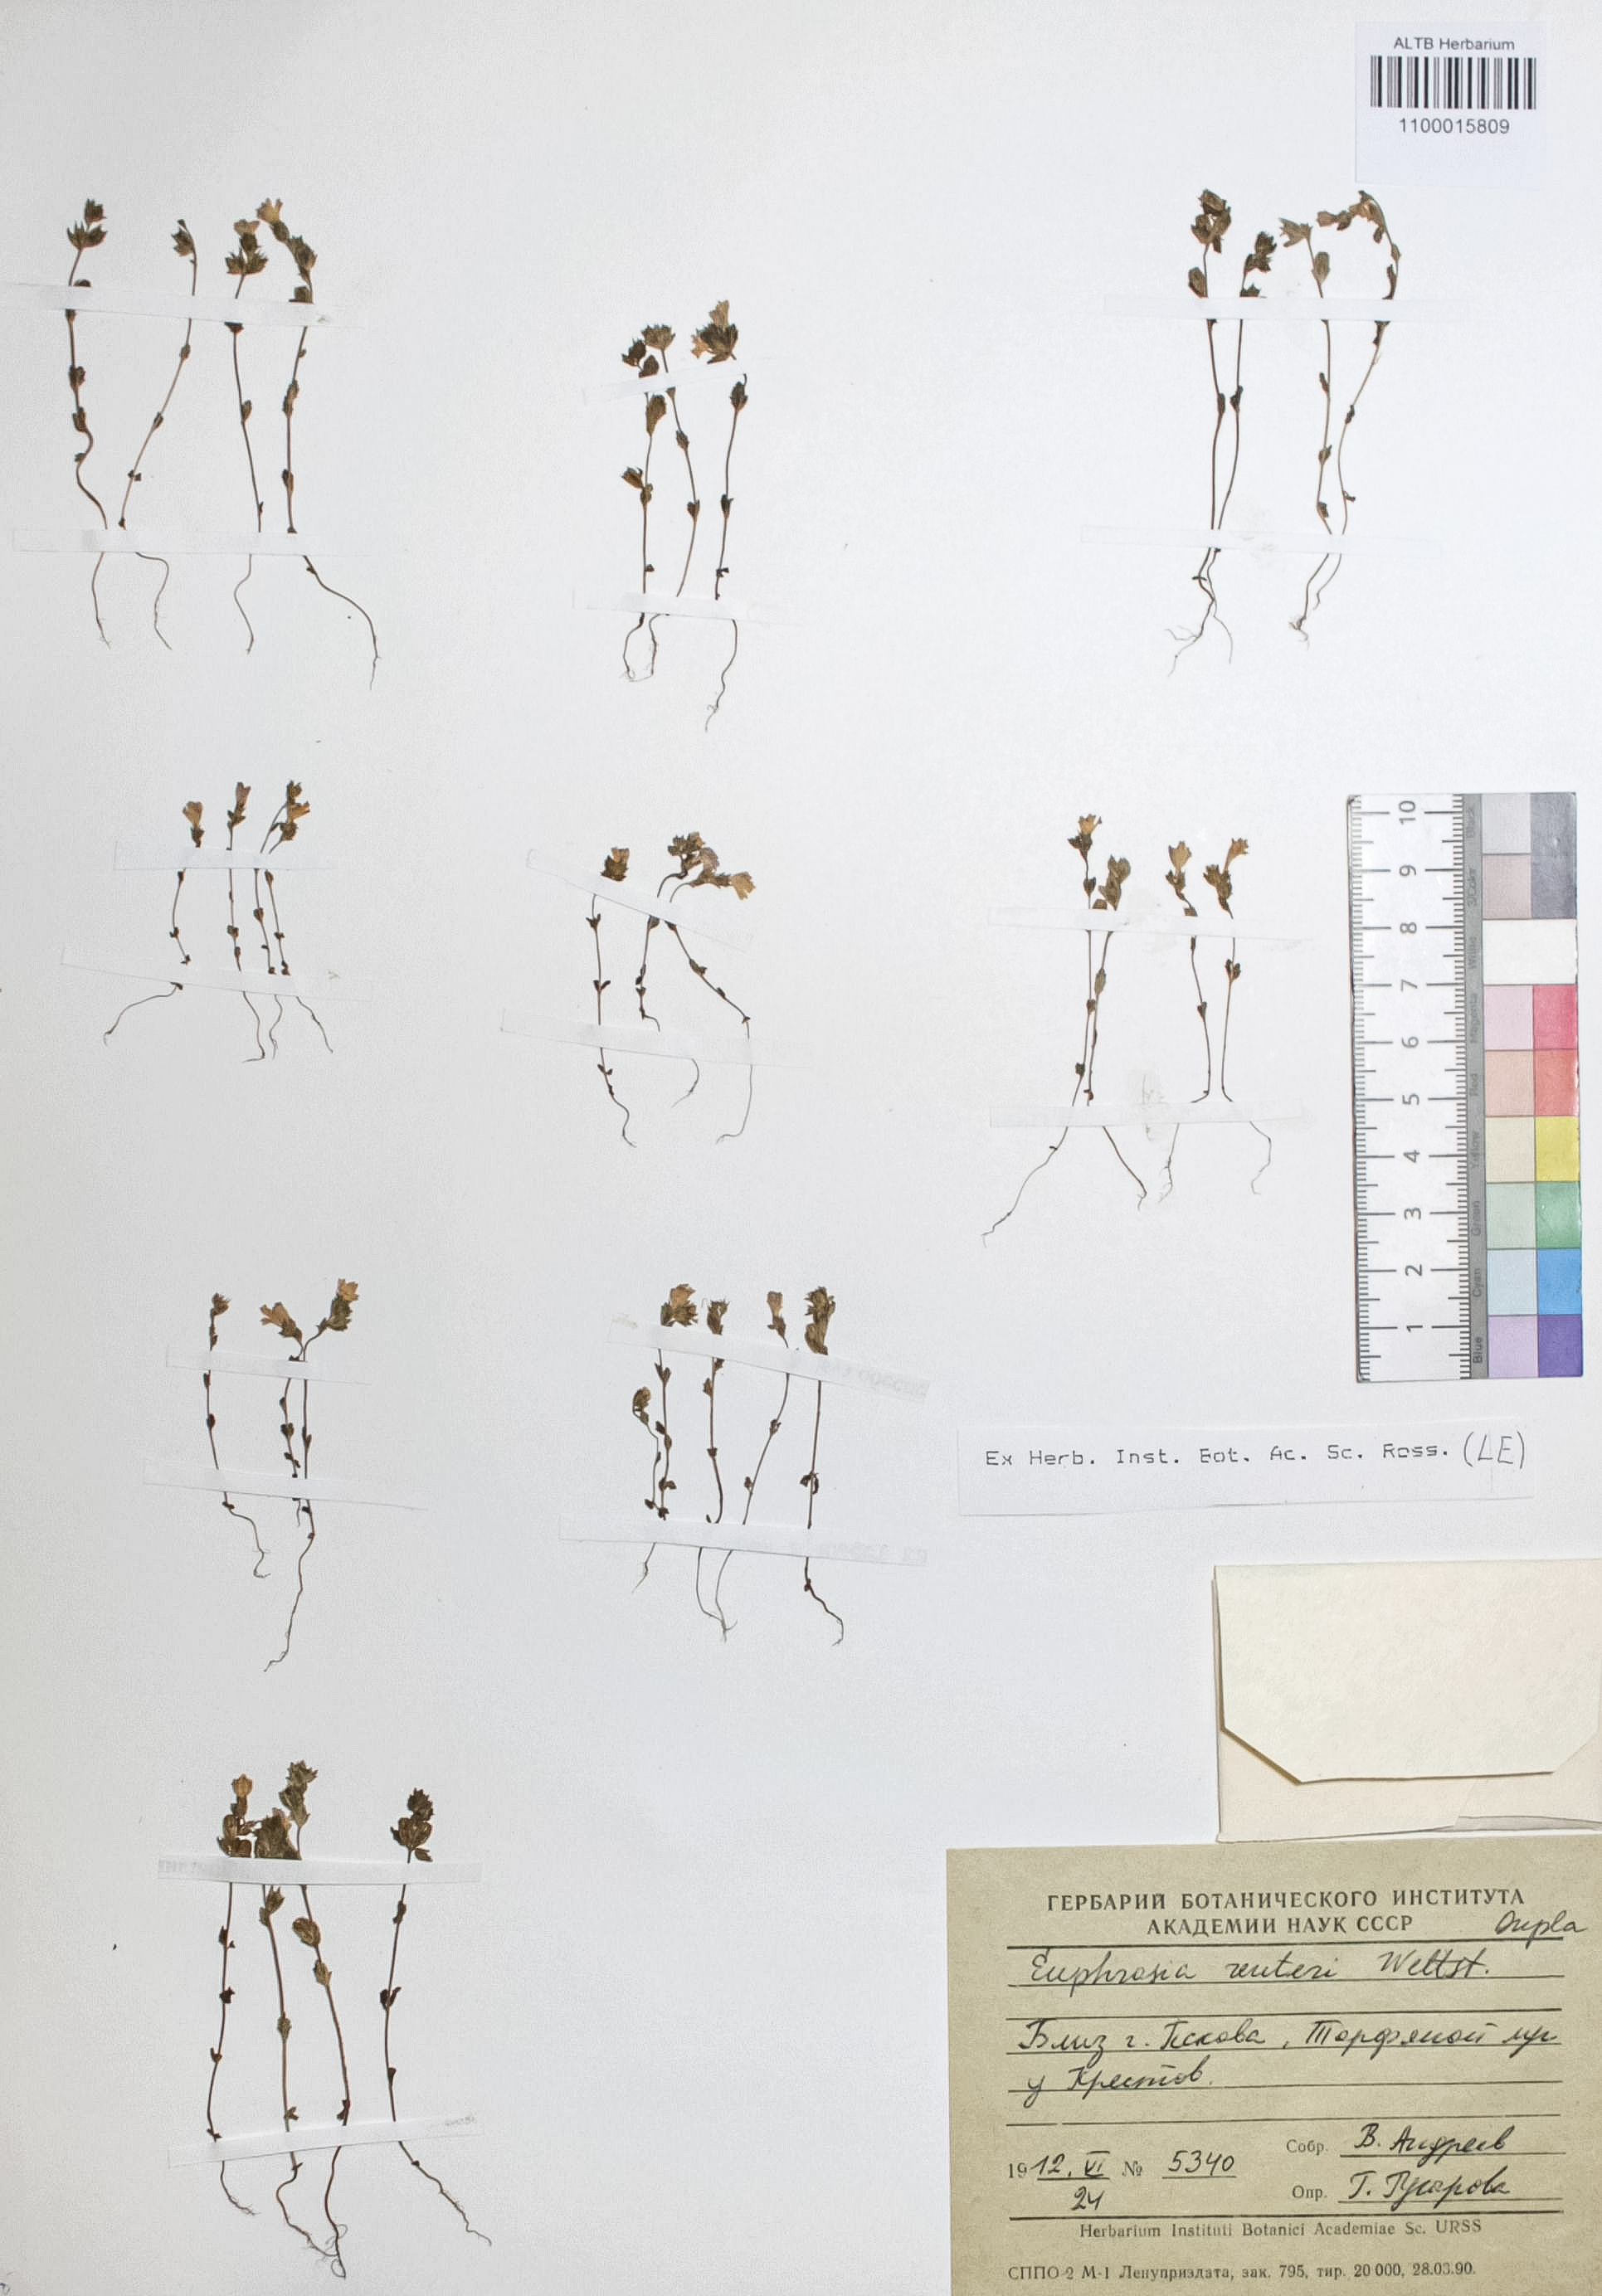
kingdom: Plantae
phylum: Tracheophyta
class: Magnoliopsida
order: Lamiales
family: Orobanchaceae
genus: Euphrasia
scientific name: Euphrasia reuteri
